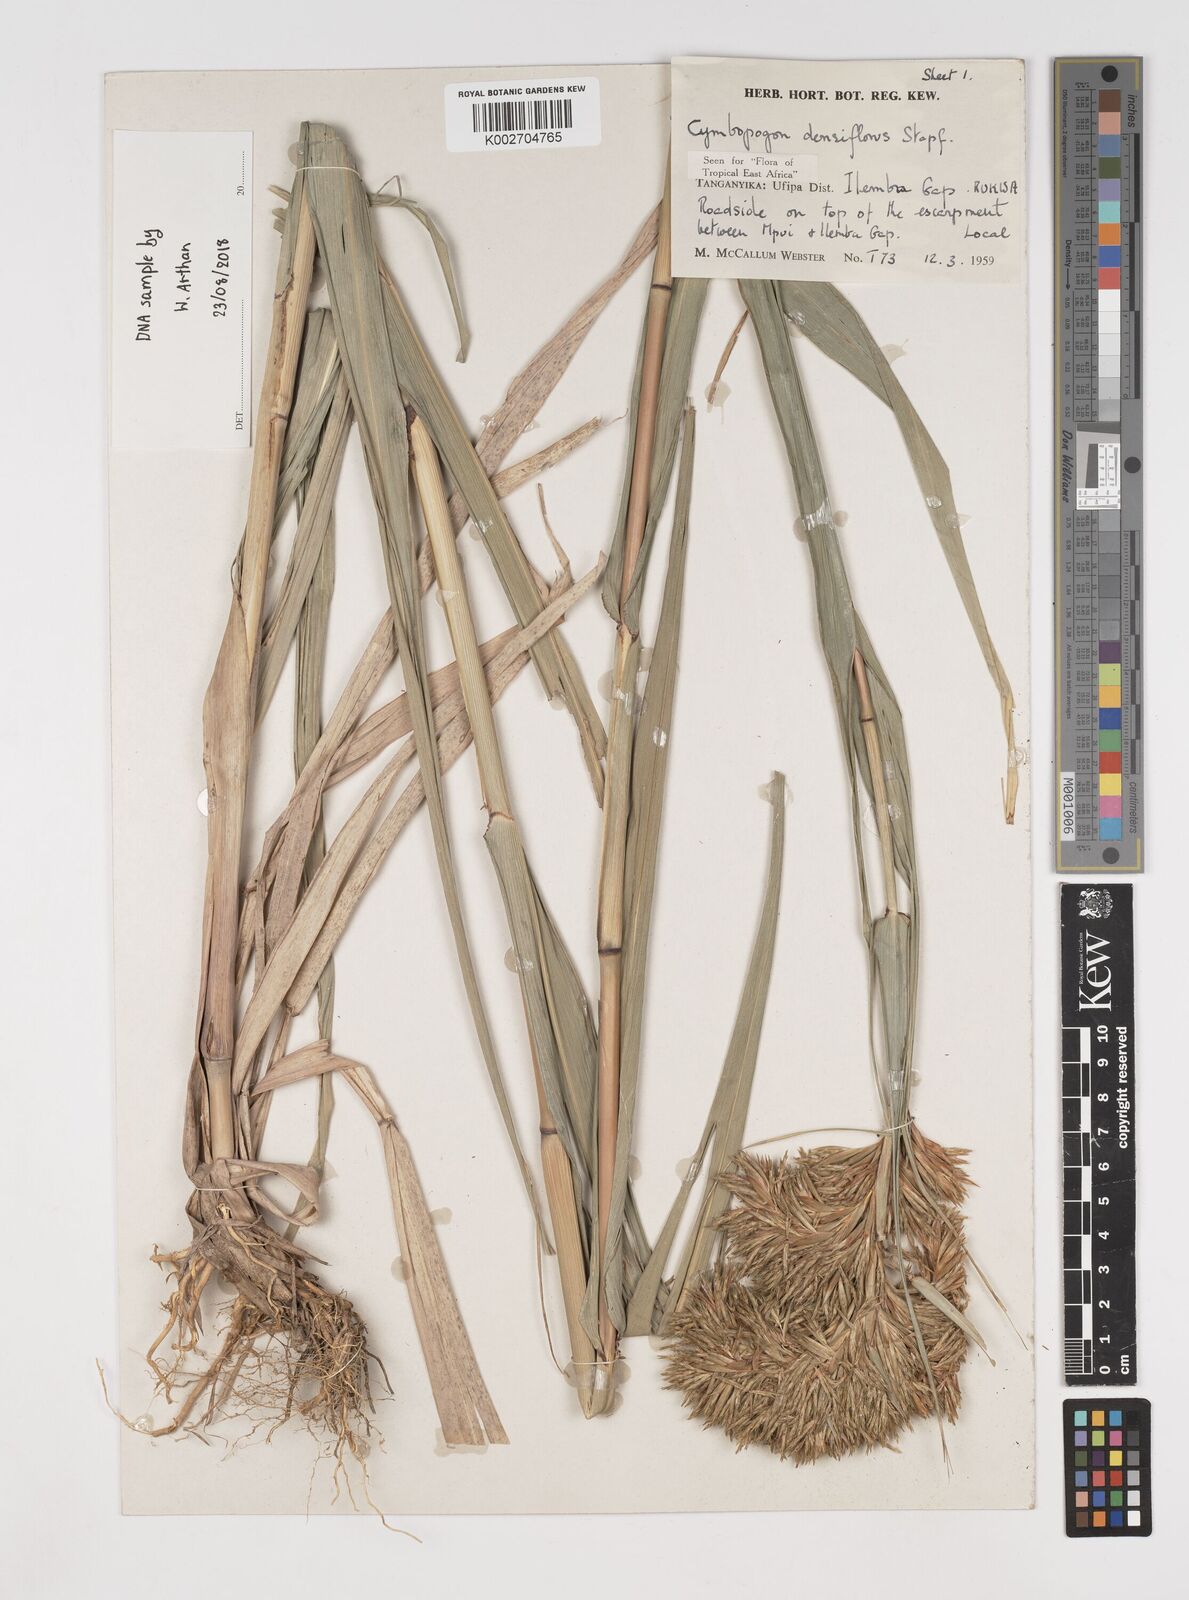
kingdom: Plantae
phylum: Tracheophyta
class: Liliopsida
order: Poales
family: Poaceae
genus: Cymbopogon
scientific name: Cymbopogon densiflorus
